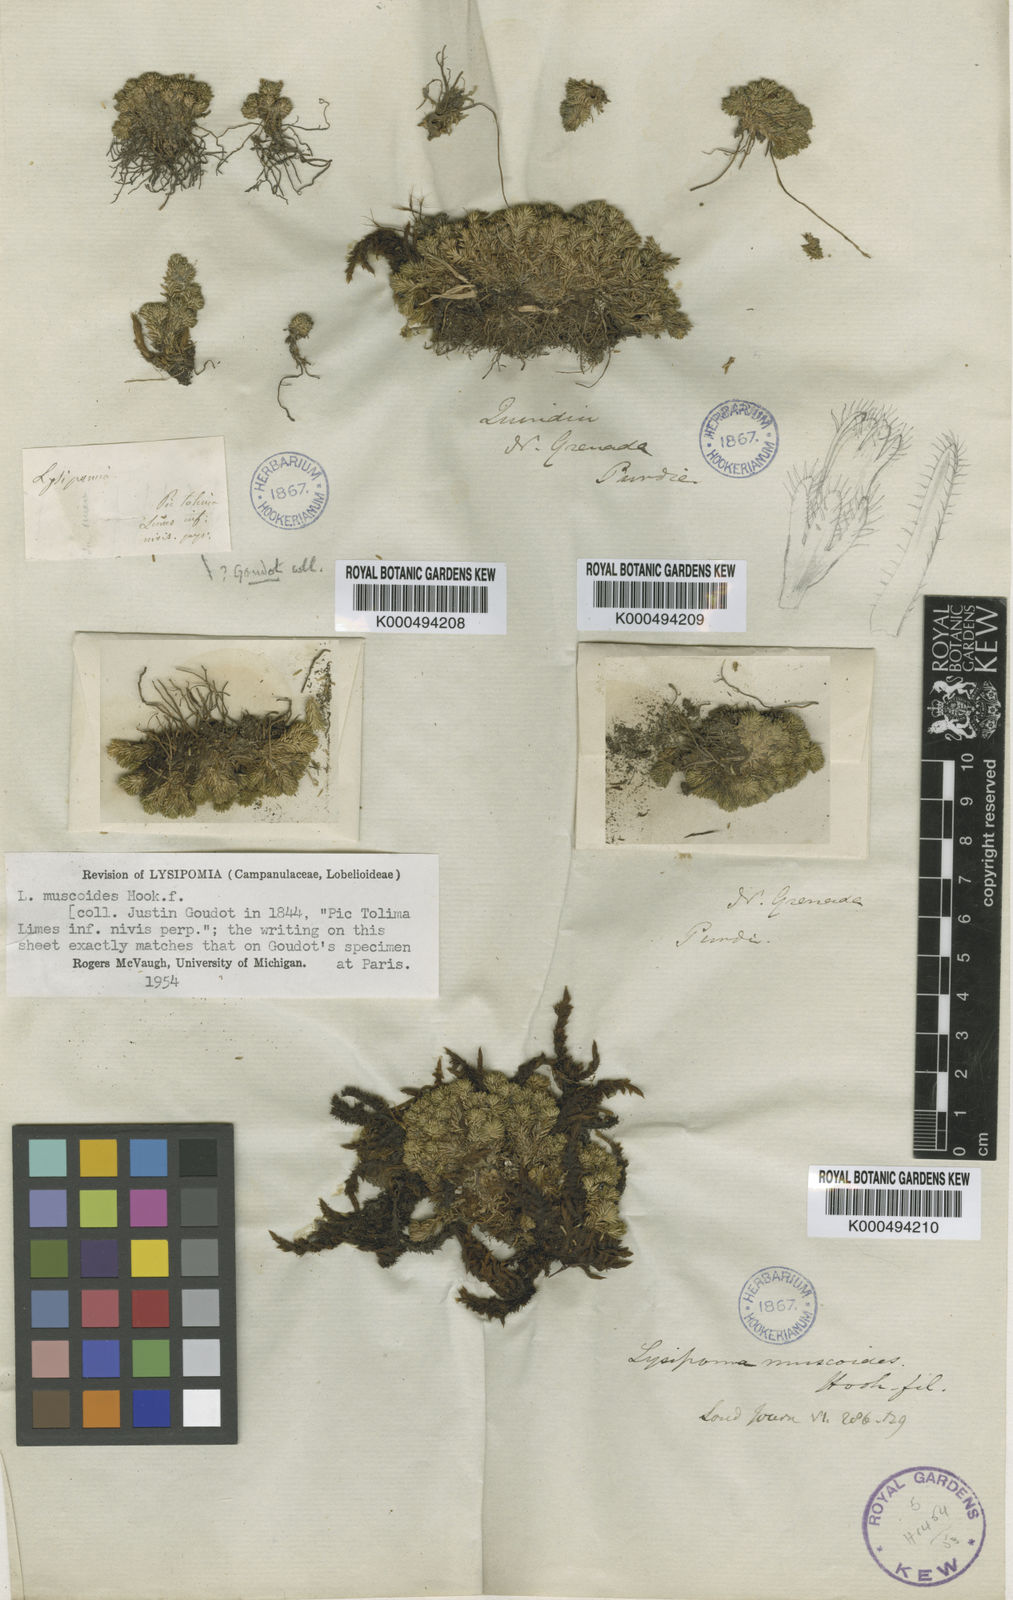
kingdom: Plantae
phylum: Tracheophyta
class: Magnoliopsida
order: Asterales
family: Campanulaceae
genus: Lysipomia
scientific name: Lysipomia muscoides
